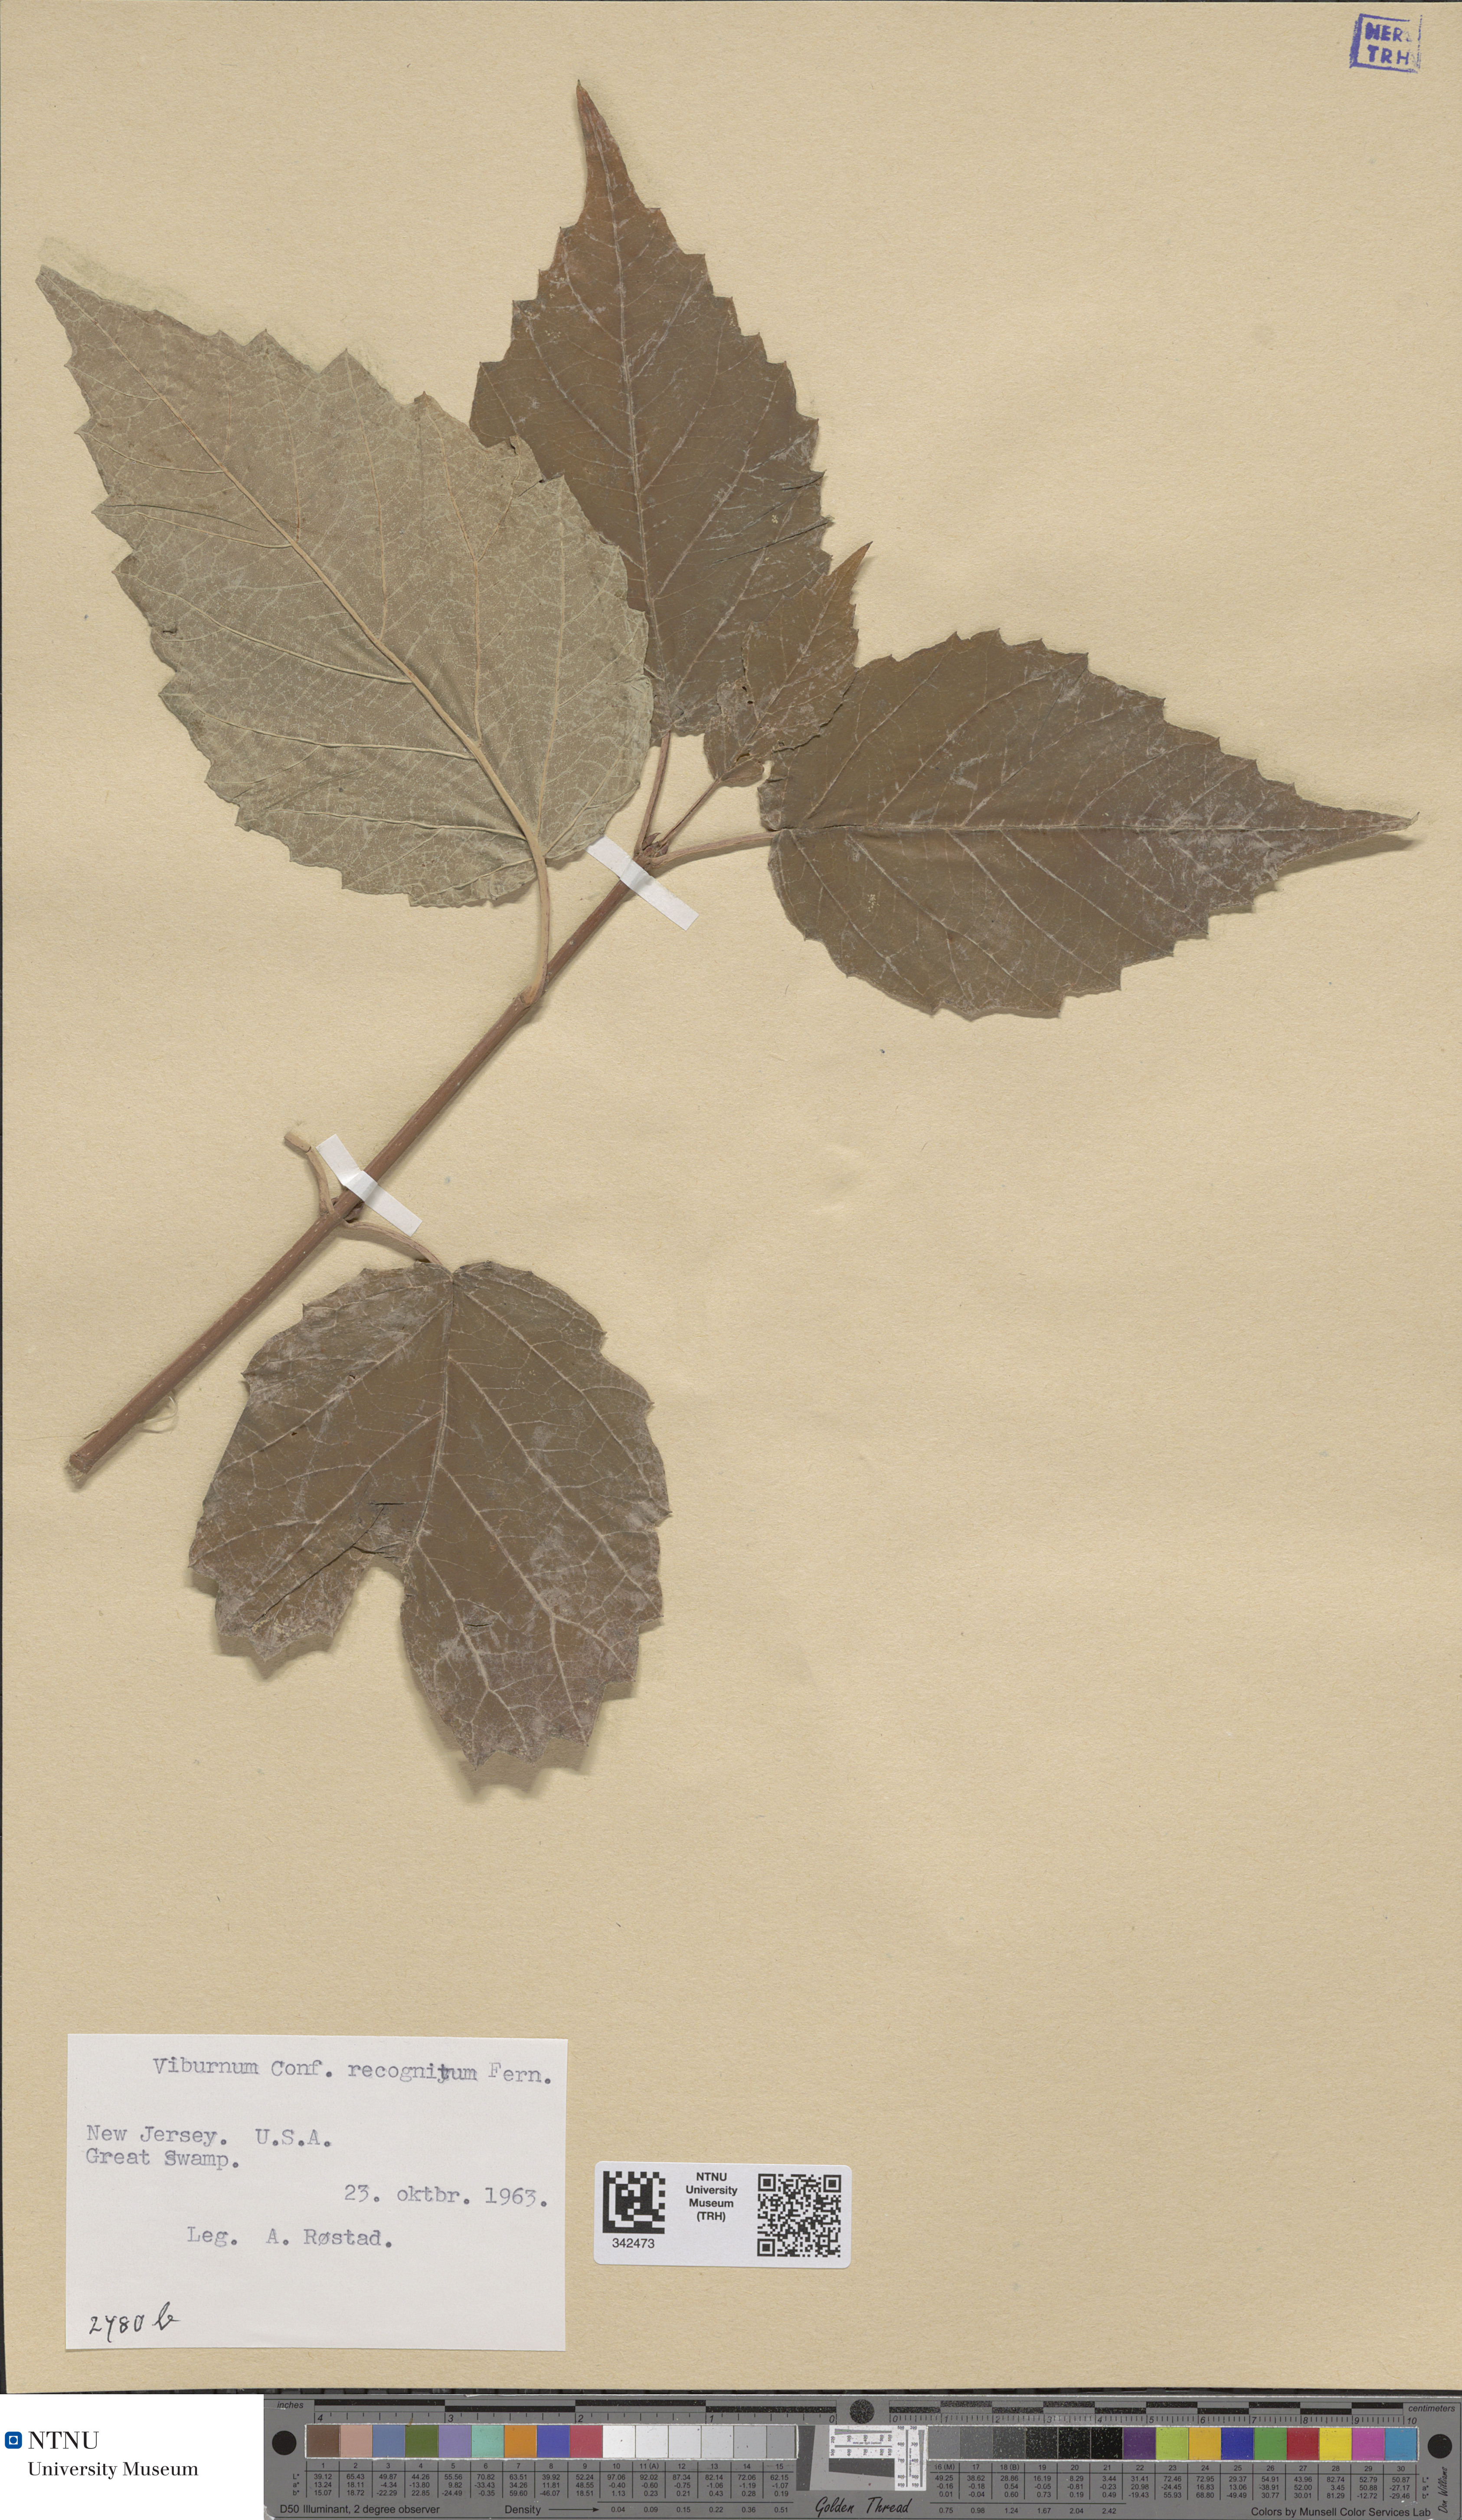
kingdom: Plantae
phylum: Tracheophyta
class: Magnoliopsida
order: Dipsacales
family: Viburnaceae
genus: Viburnum
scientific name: Viburnum recognitum
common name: Northern arrow-wood
